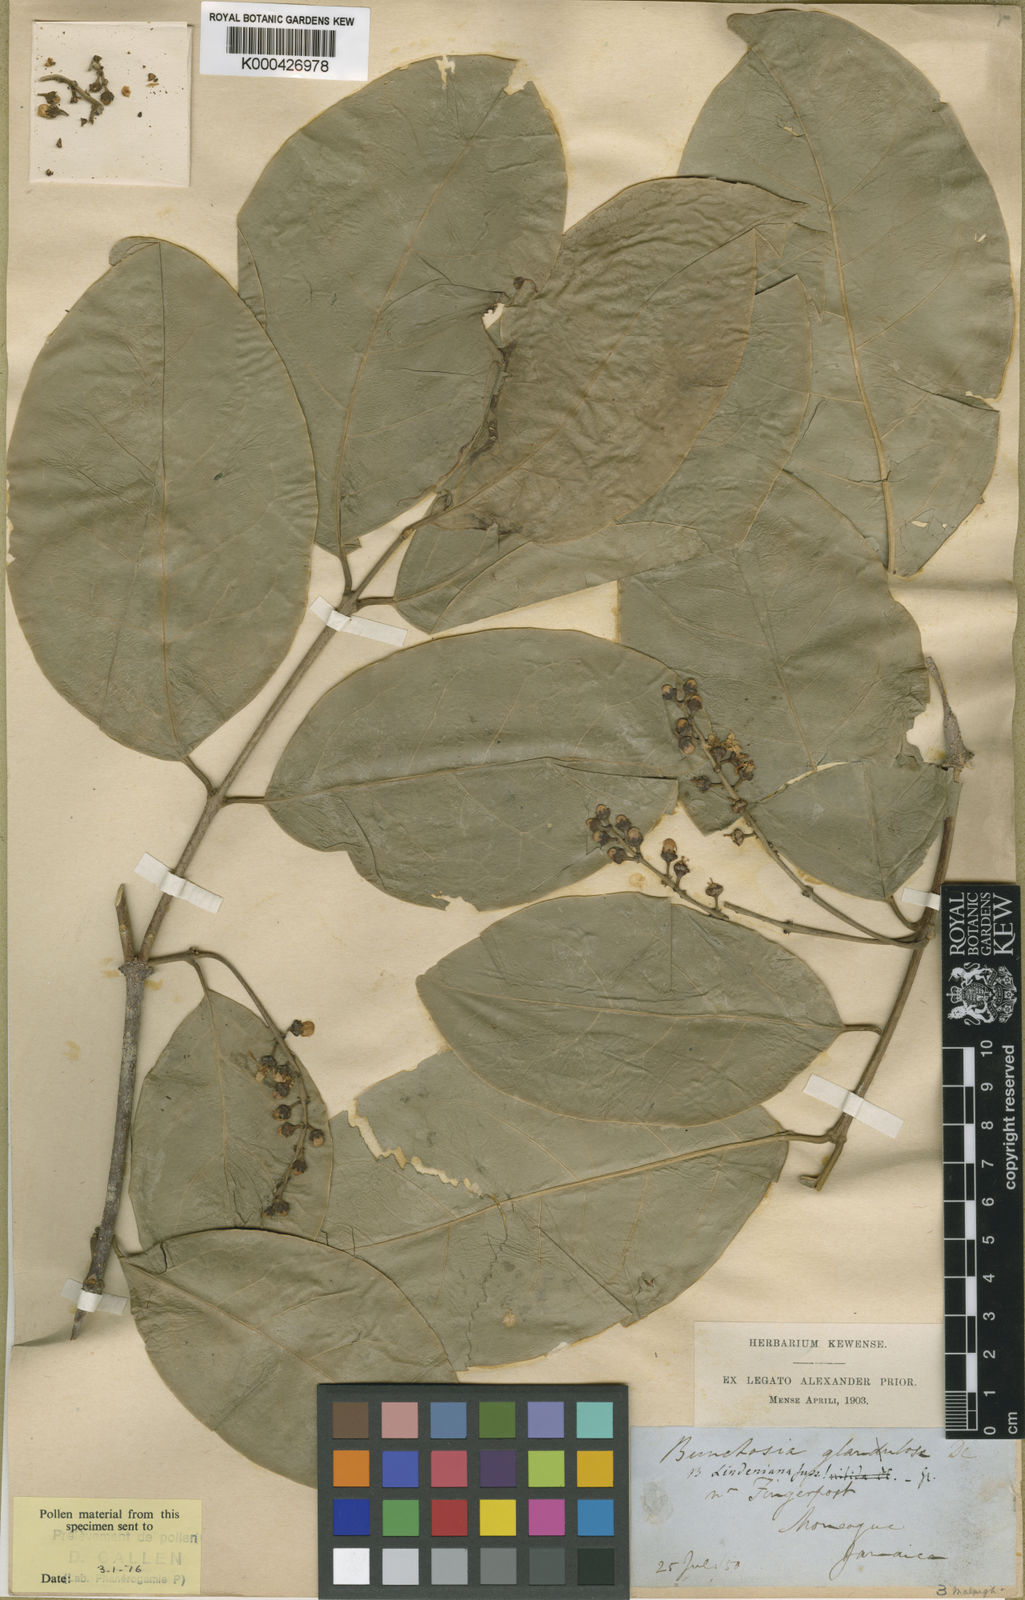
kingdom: Plantae
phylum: Tracheophyta
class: Magnoliopsida
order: Malpighiales
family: Malpighiaceae
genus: Bunchosia
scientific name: Bunchosia jamaicensis
